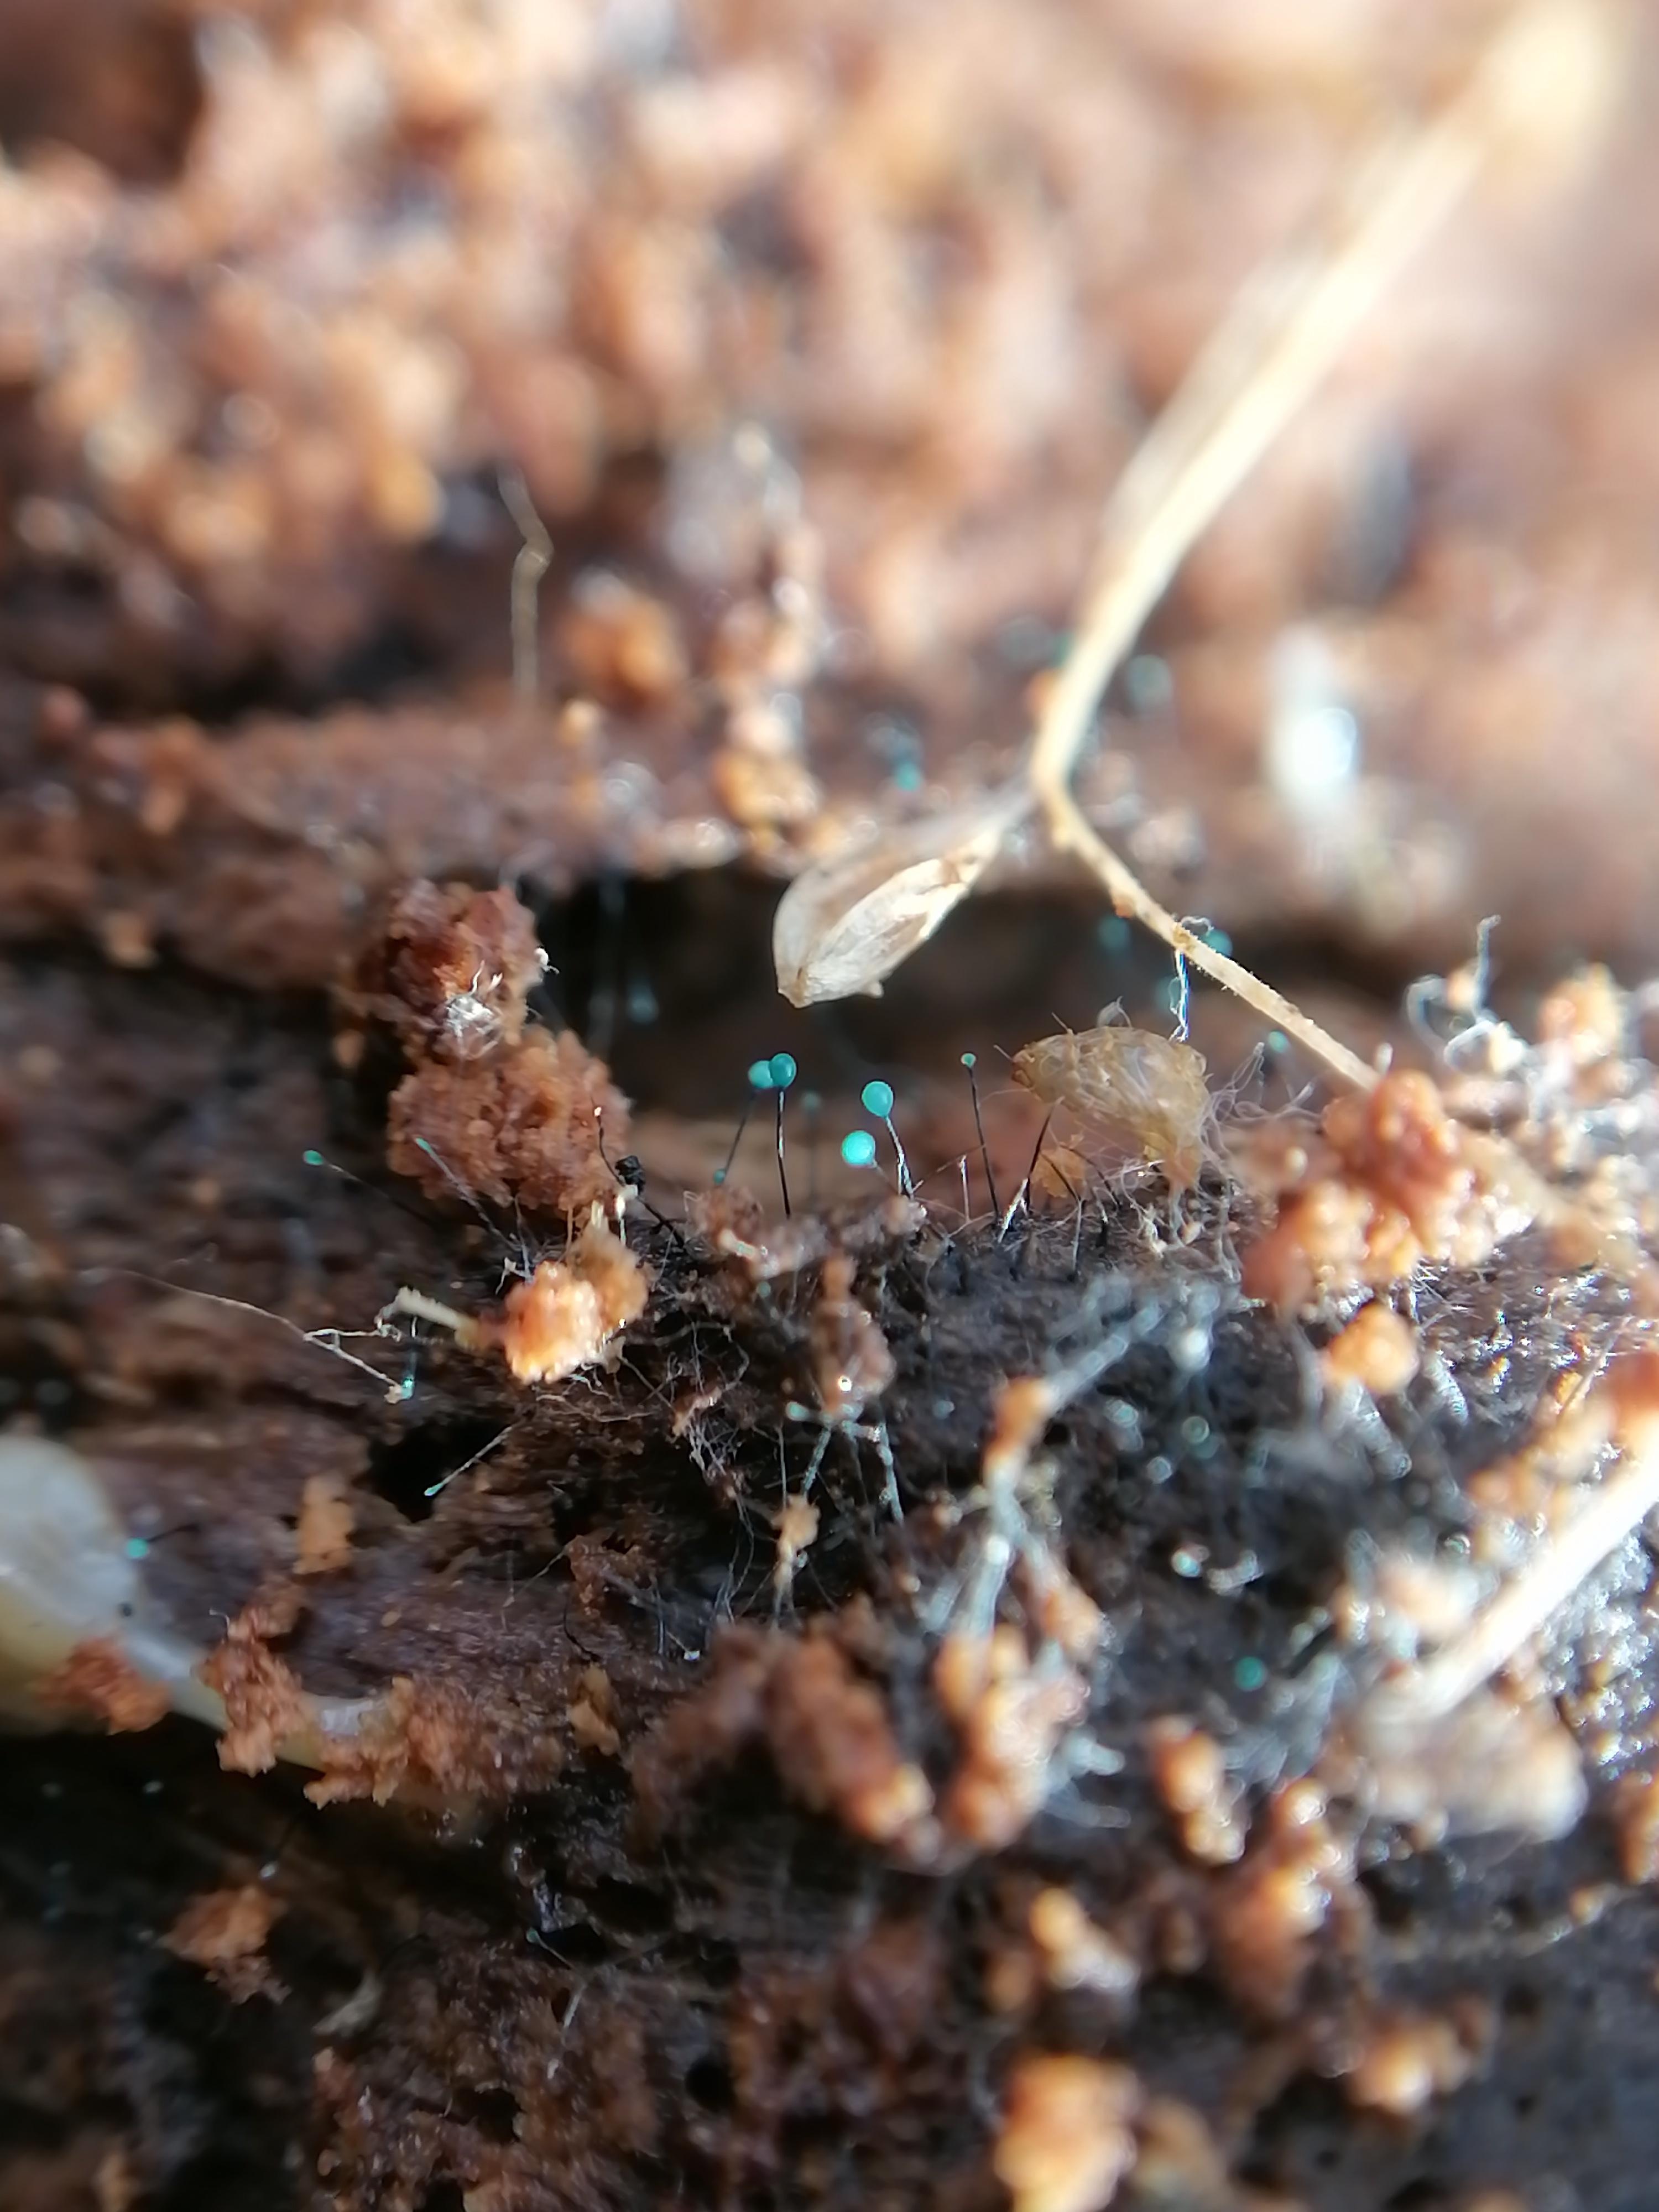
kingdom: Fungi
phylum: Ascomycota
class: Leotiomycetes
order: Leotiales
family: Tympanidaceae
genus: Dendrostilbella
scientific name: Dendrostilbella smaragdina
